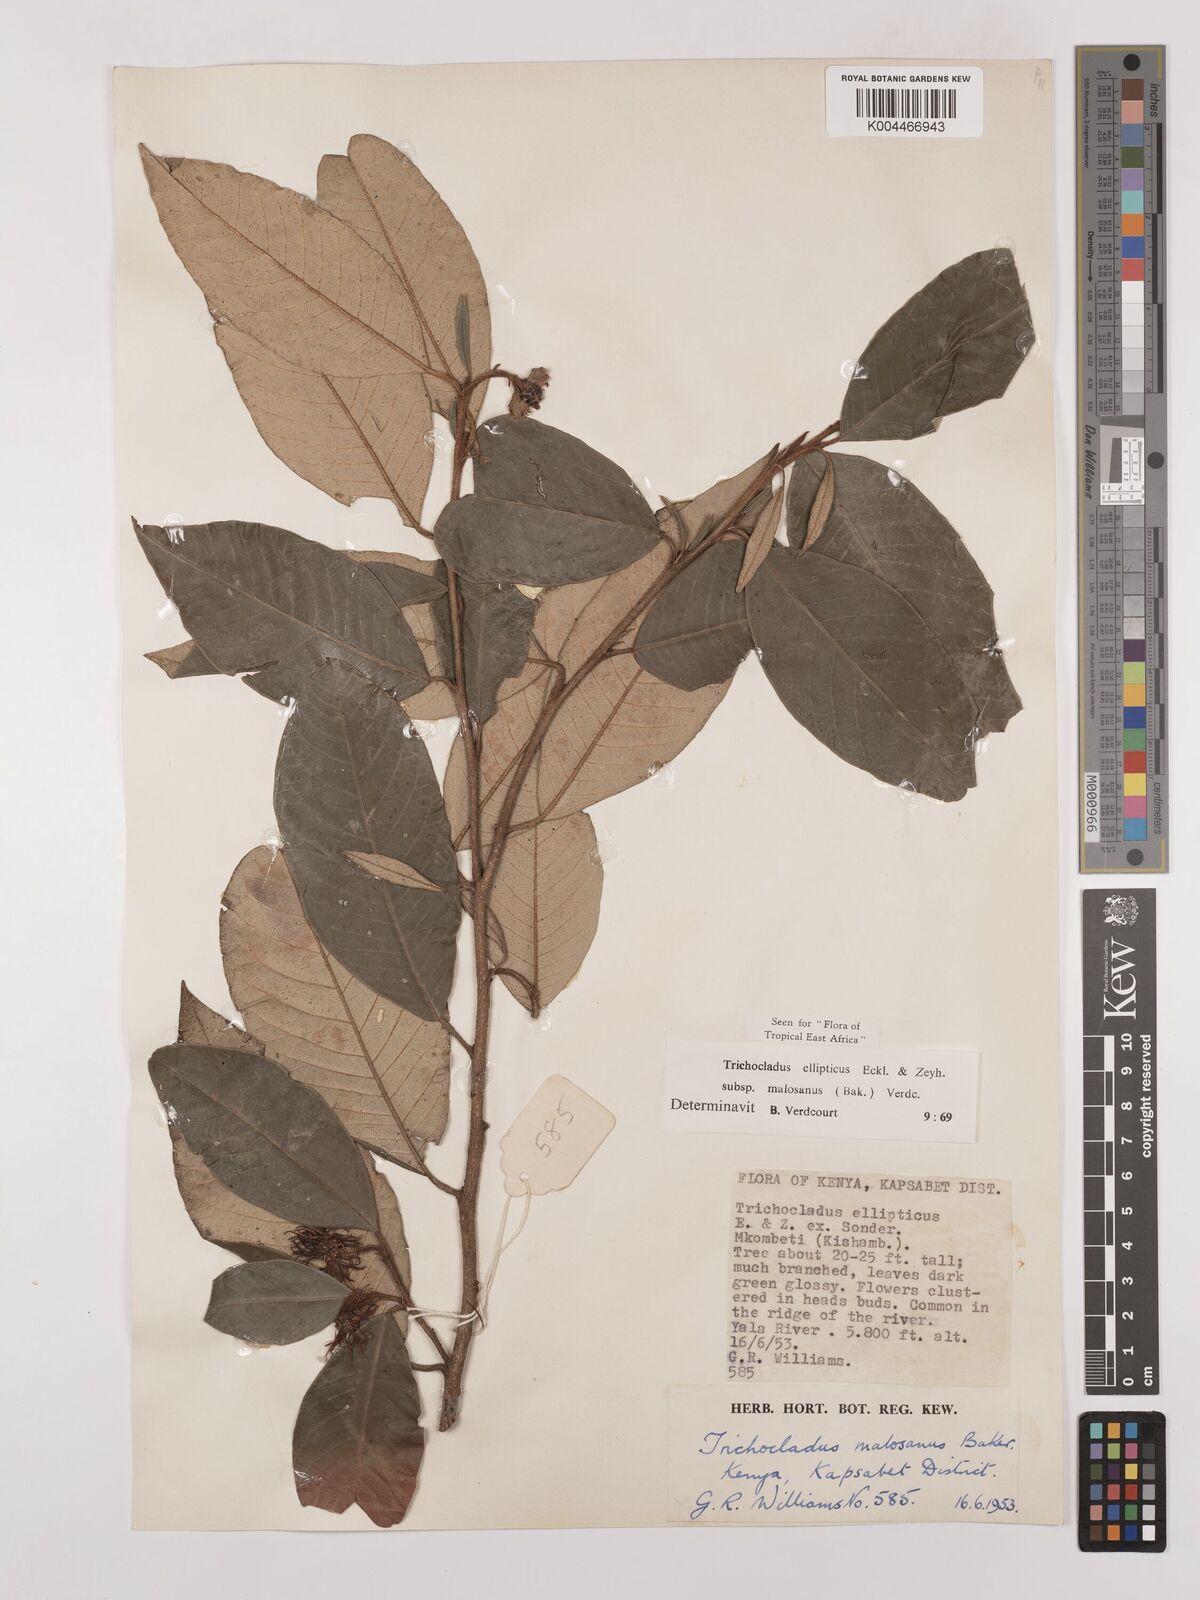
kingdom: Plantae
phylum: Tracheophyta
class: Magnoliopsida
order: Saxifragales
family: Hamamelidaceae
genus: Trichocladus
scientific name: Trichocladus ellipticus
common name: White witch-hazel
